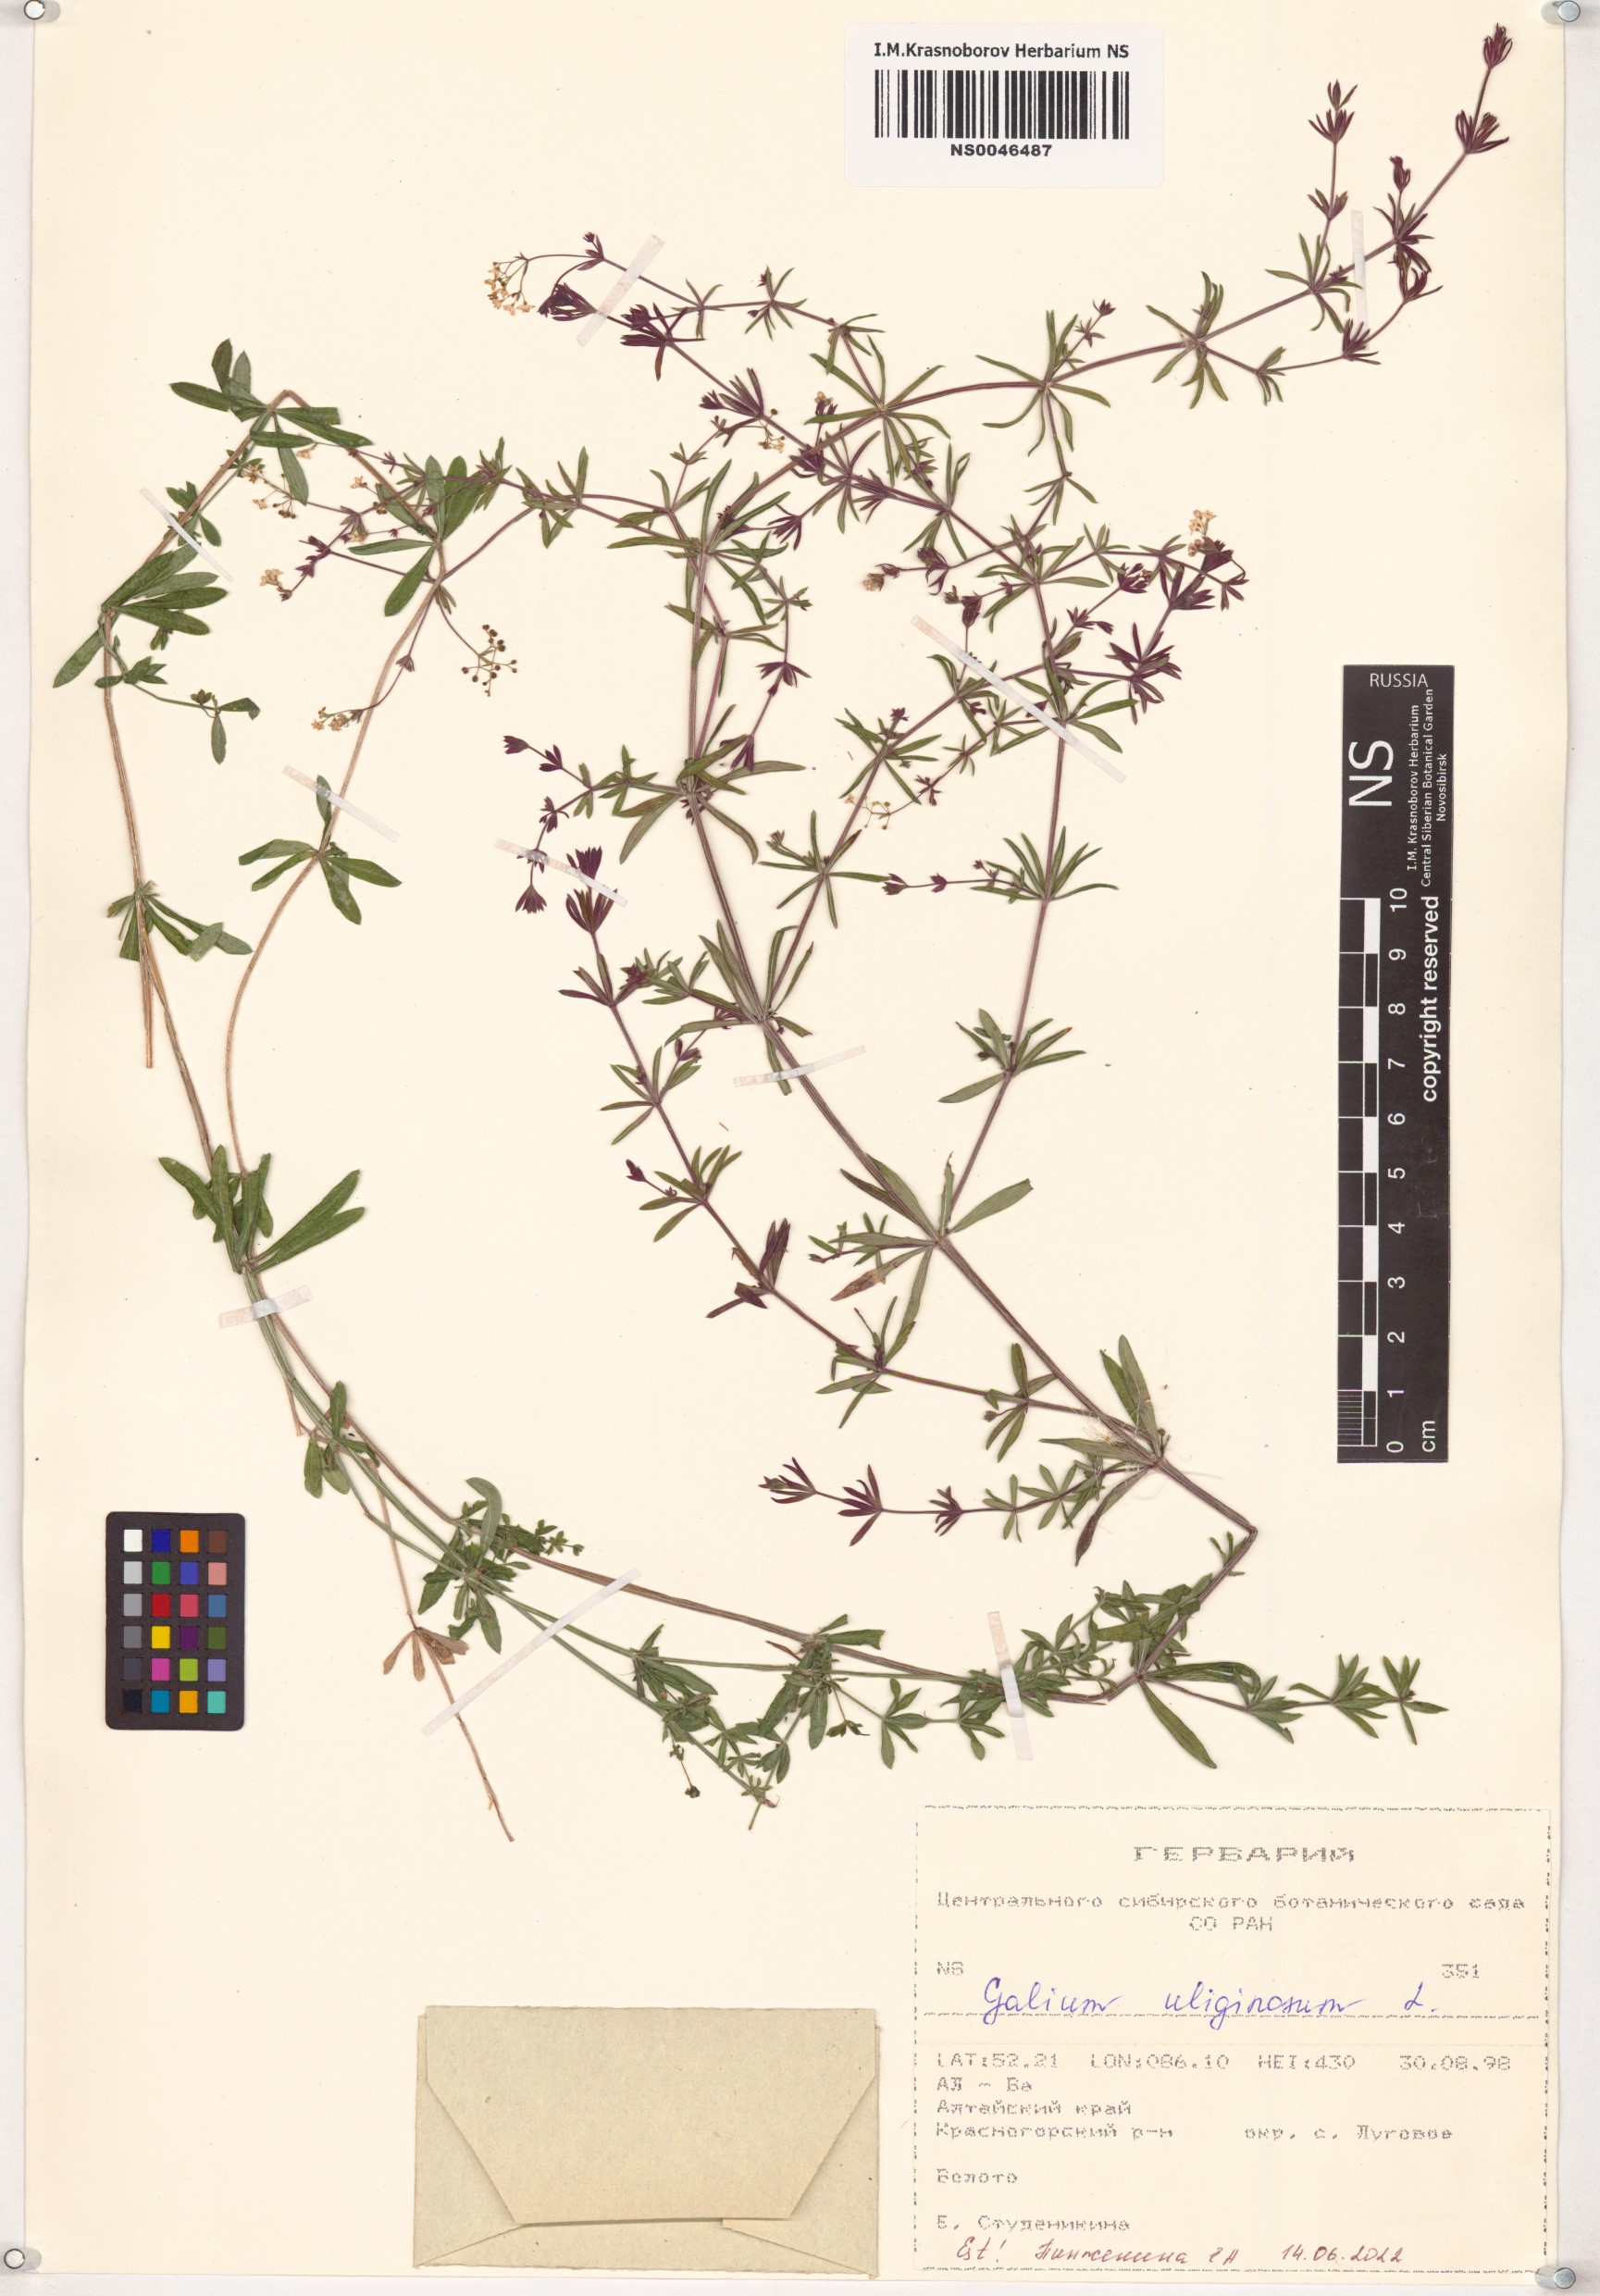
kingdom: Plantae
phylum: Tracheophyta
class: Magnoliopsida
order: Gentianales
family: Rubiaceae
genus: Galium
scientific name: Galium uliginosum
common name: Fen bedstraw
